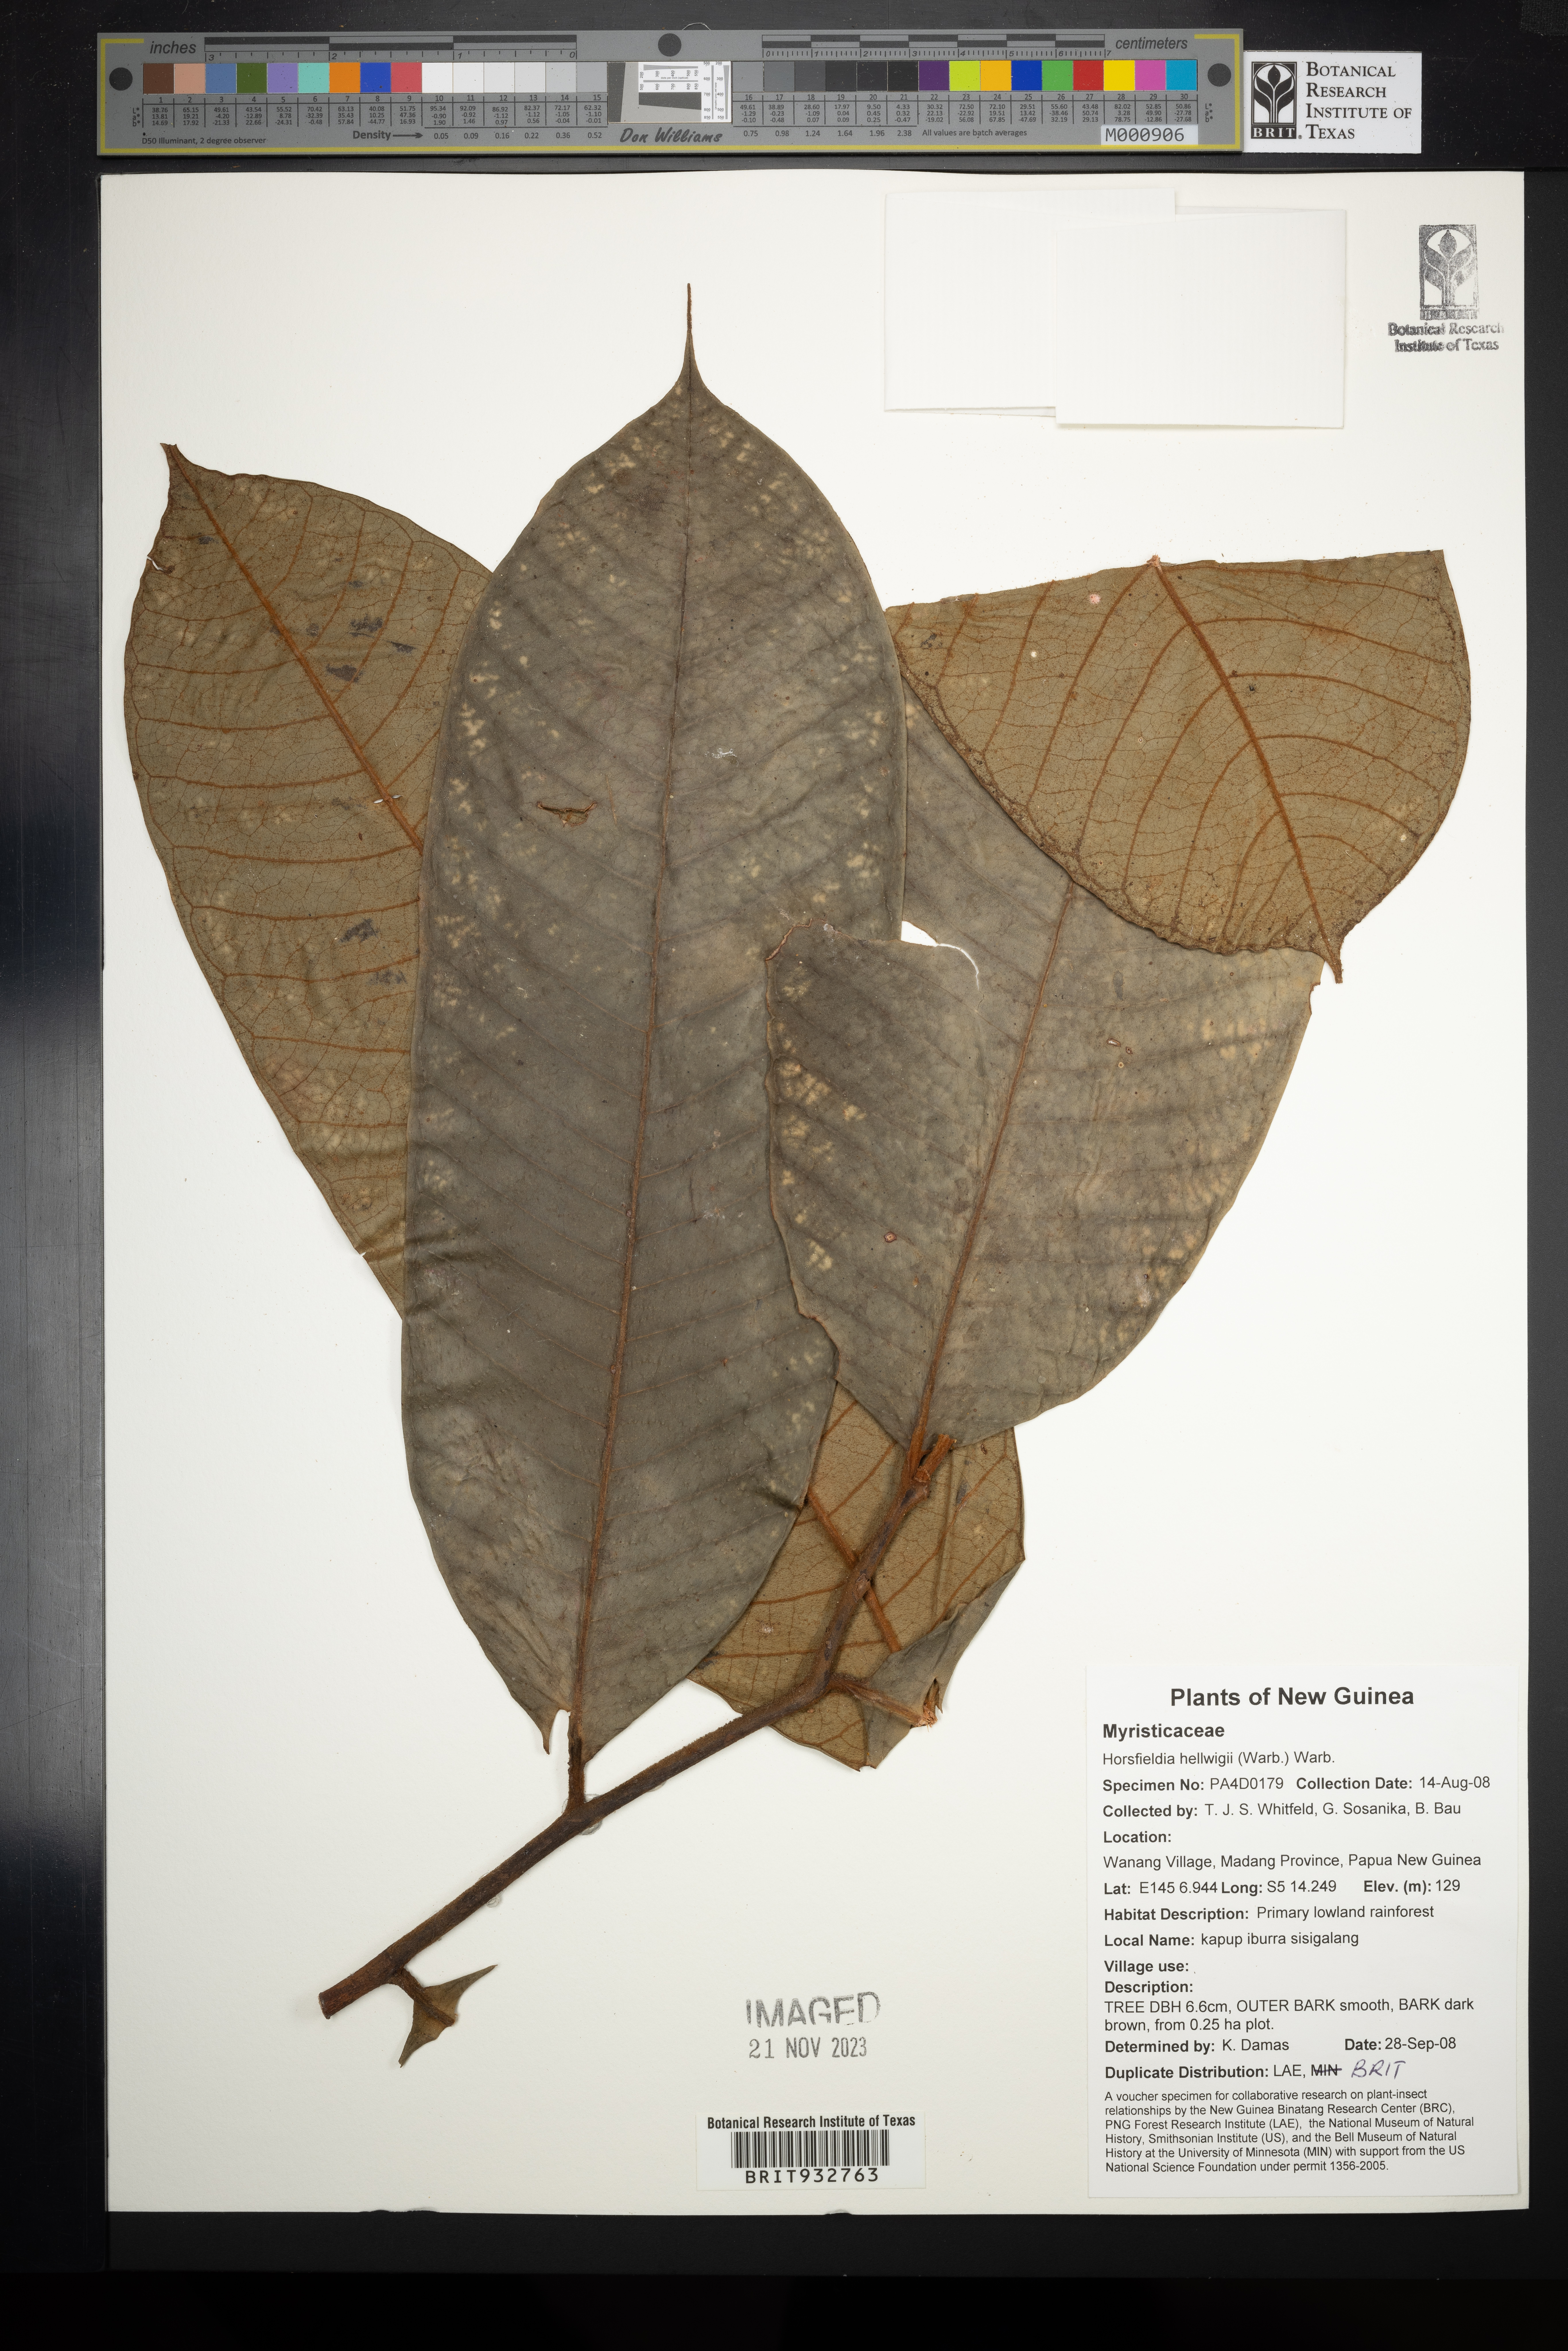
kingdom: Plantae
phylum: Tracheophyta
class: Magnoliopsida
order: Magnoliales
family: Myristicaceae
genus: Horsfieldia
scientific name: Horsfieldia
